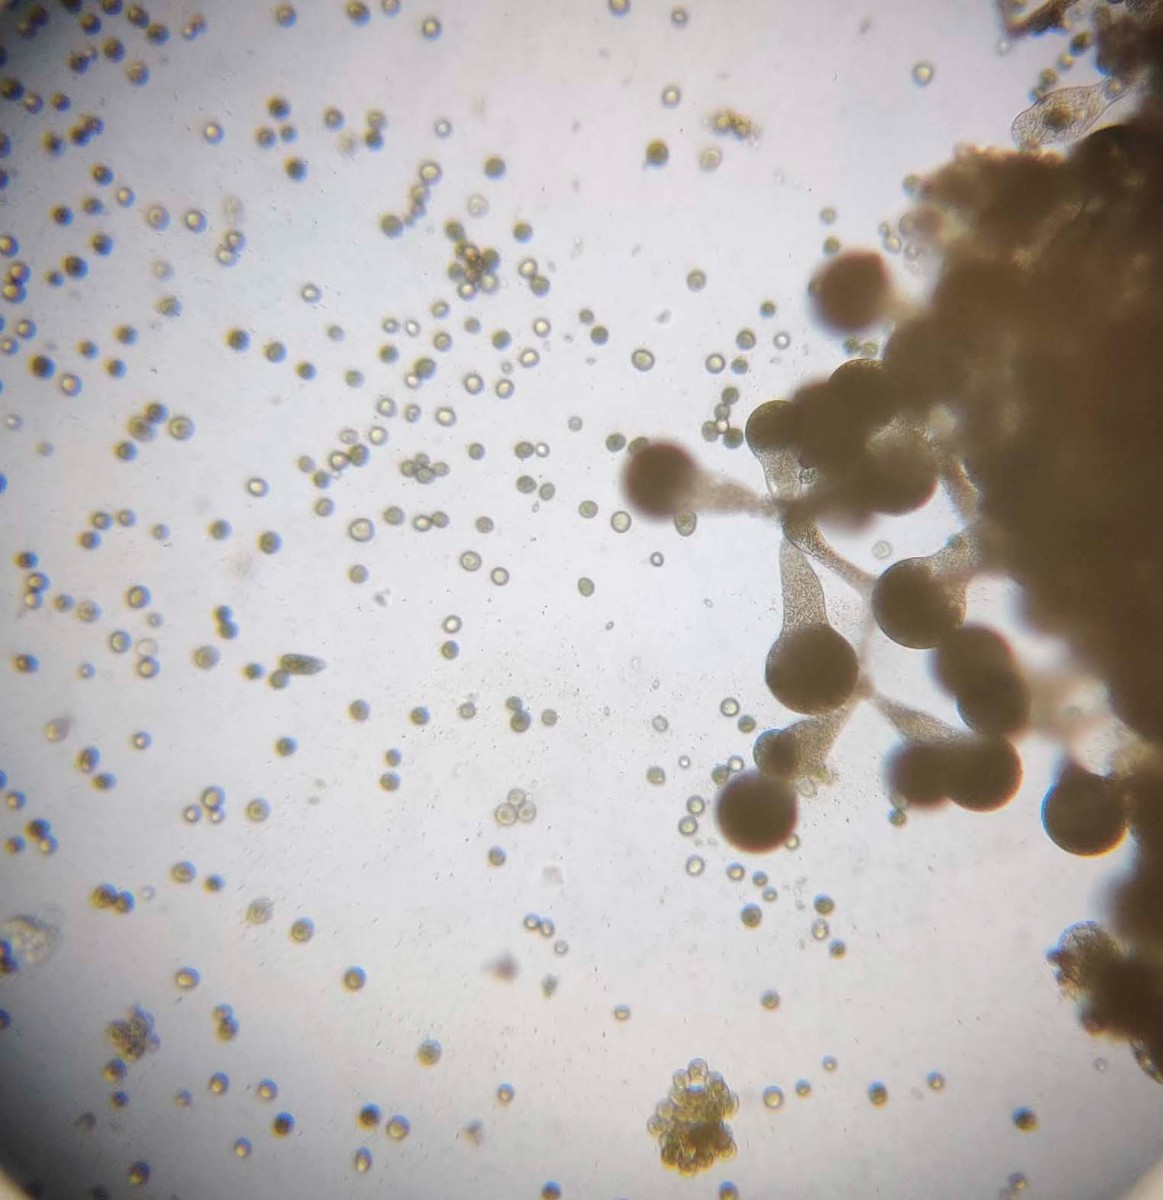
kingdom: Fungi
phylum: Mucoromycota
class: Mucoromycetes
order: Mucorales
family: Rhizopodaceae
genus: Syzygites
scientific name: Syzygites megalocarpus
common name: nissenål
